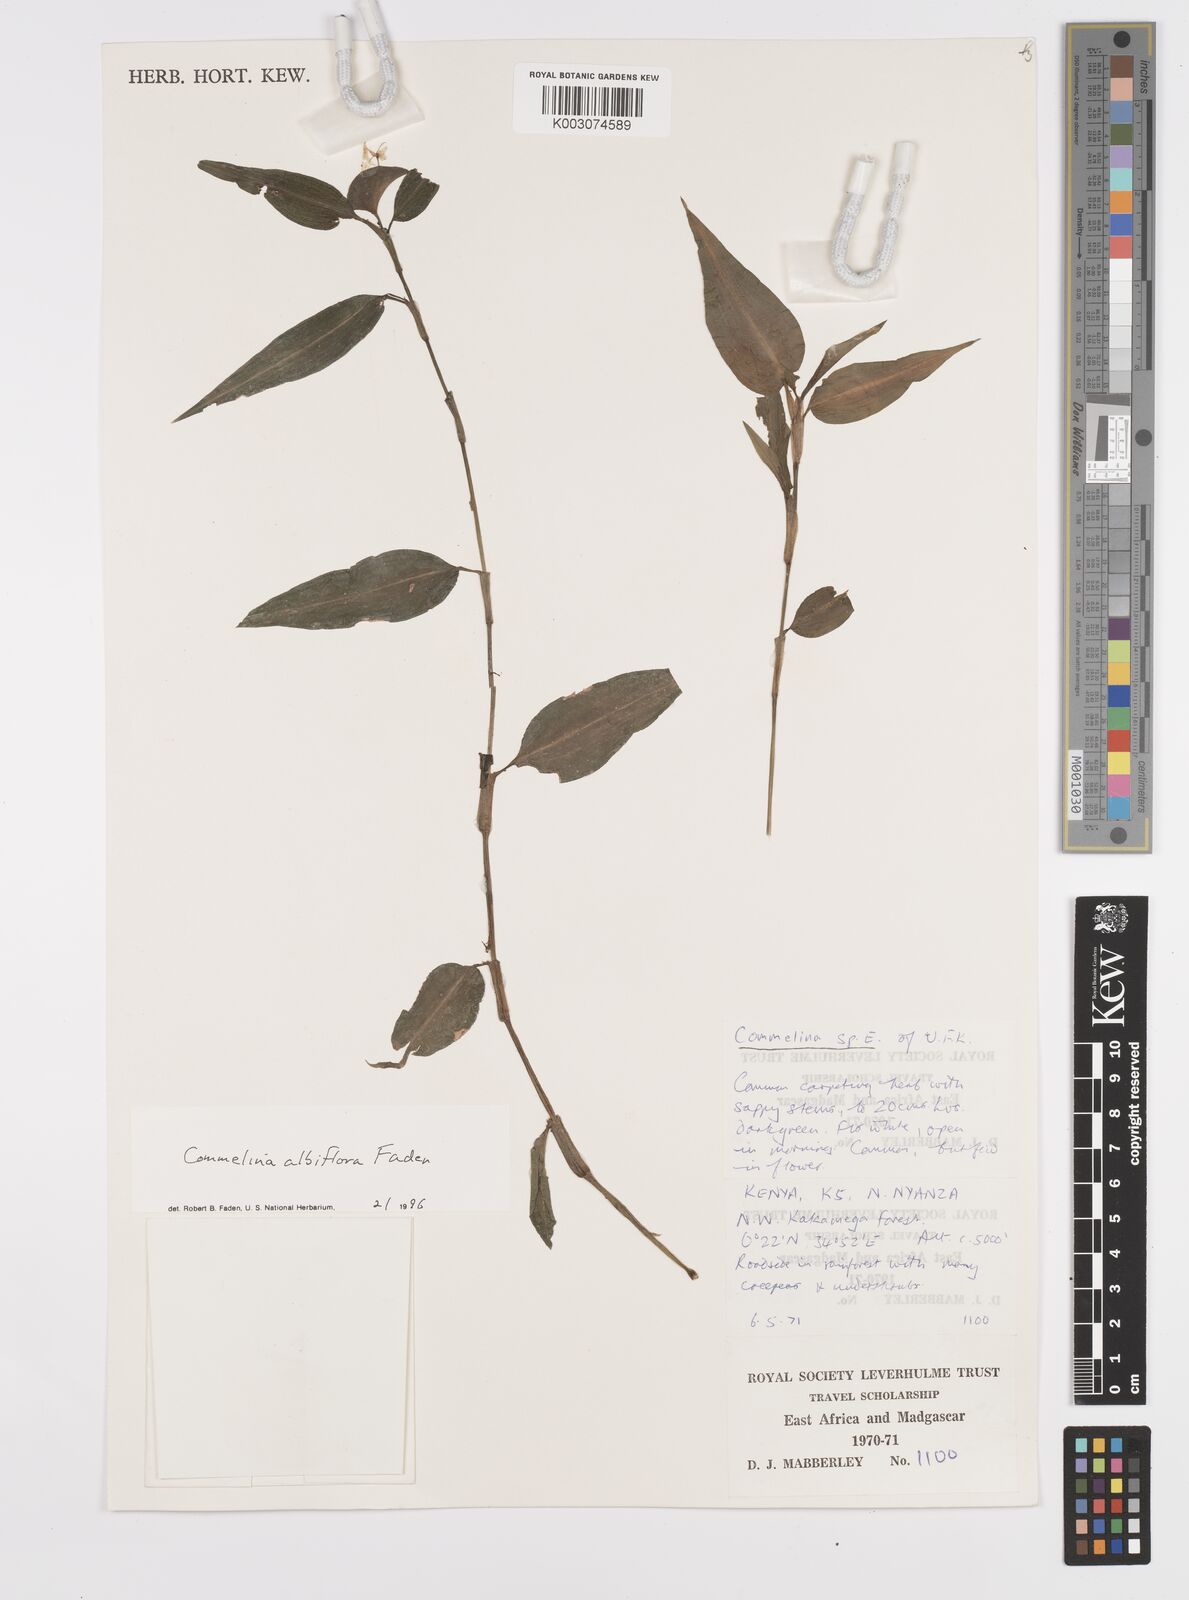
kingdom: Plantae
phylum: Tracheophyta
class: Liliopsida
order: Commelinales
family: Commelinaceae
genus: Commelina
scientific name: Commelina albiflora
